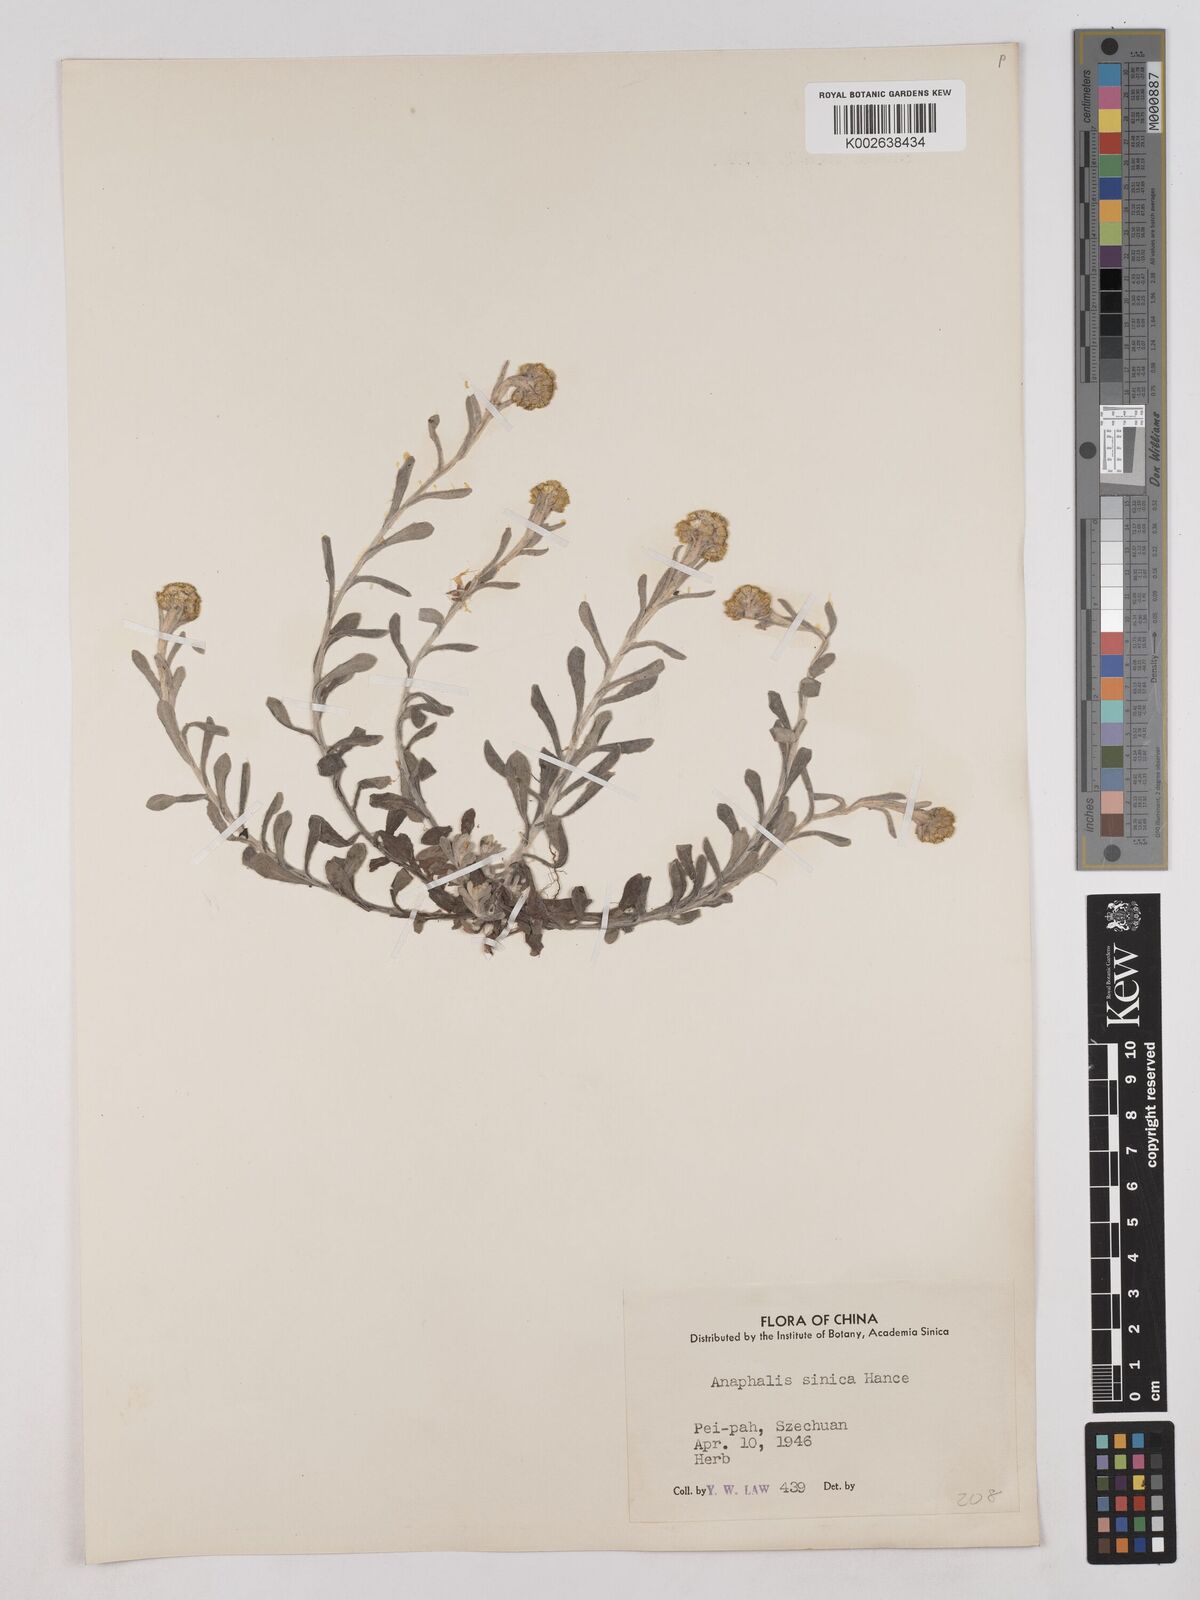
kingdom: Plantae
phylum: Tracheophyta
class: Magnoliopsida
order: Asterales
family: Asteraceae
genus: Anaphalis
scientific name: Anaphalis yunnanensis
